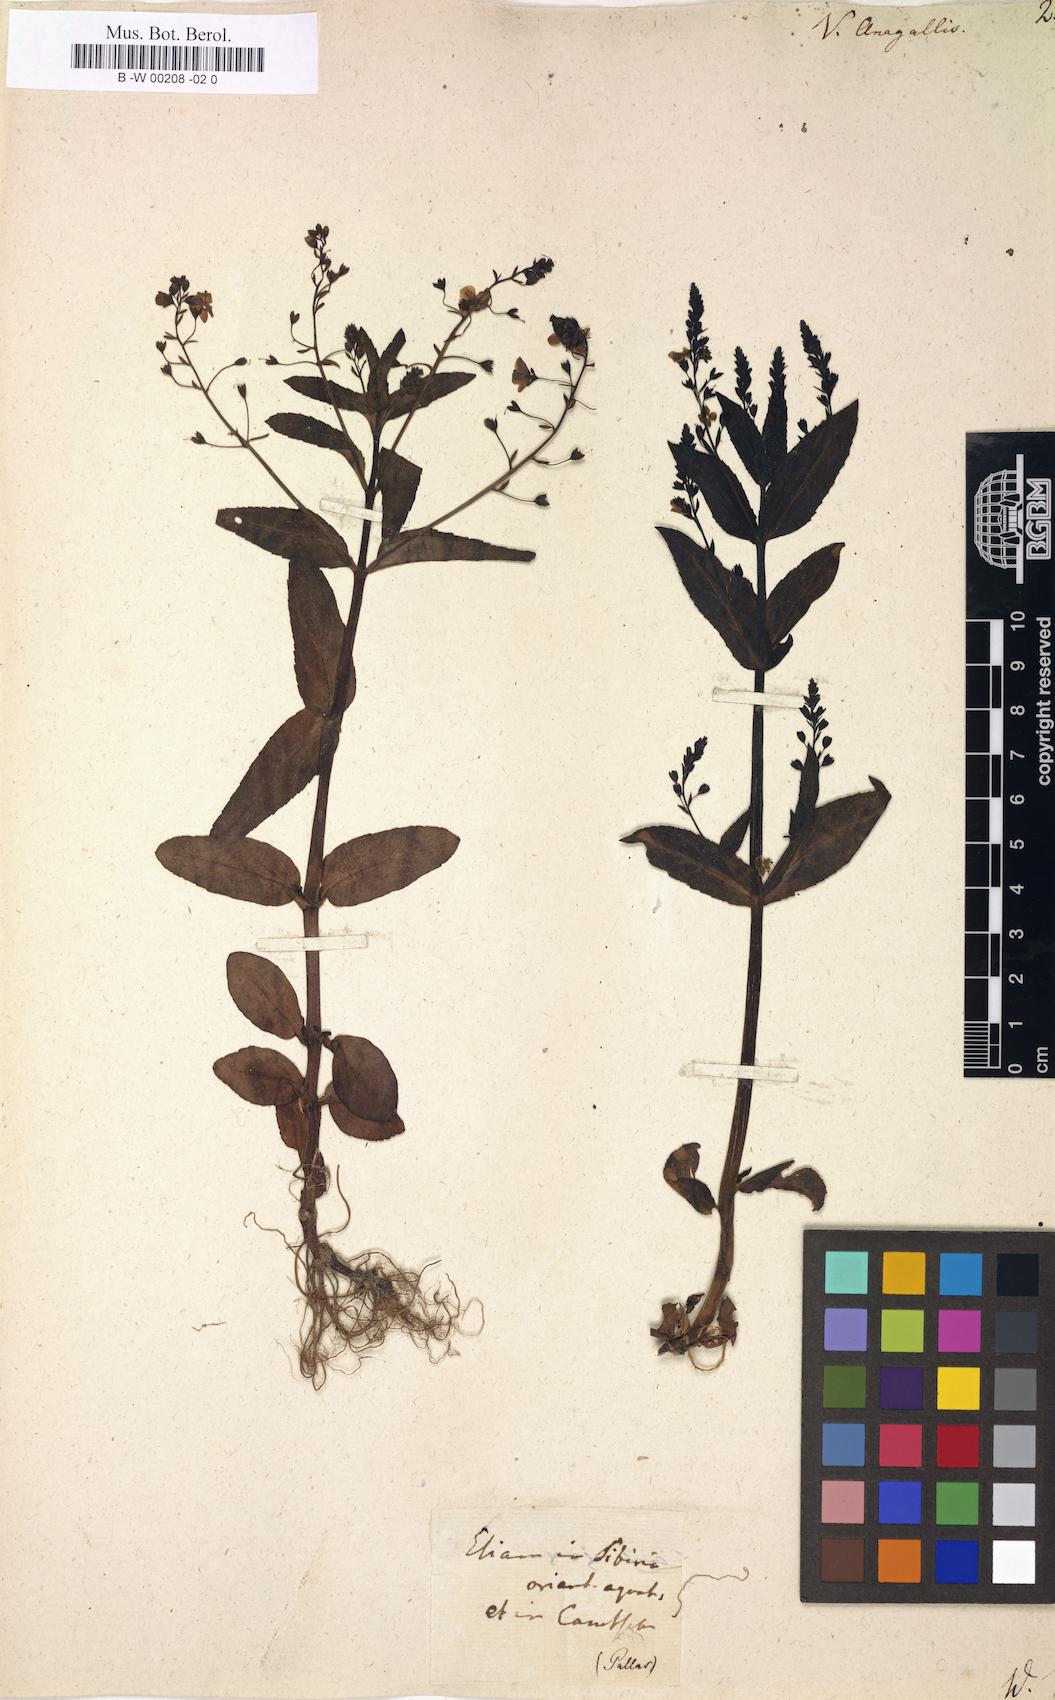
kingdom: Plantae
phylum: Tracheophyta
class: Magnoliopsida
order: Lamiales
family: Plantaginaceae
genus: Veronica
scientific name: Veronica anagallis
